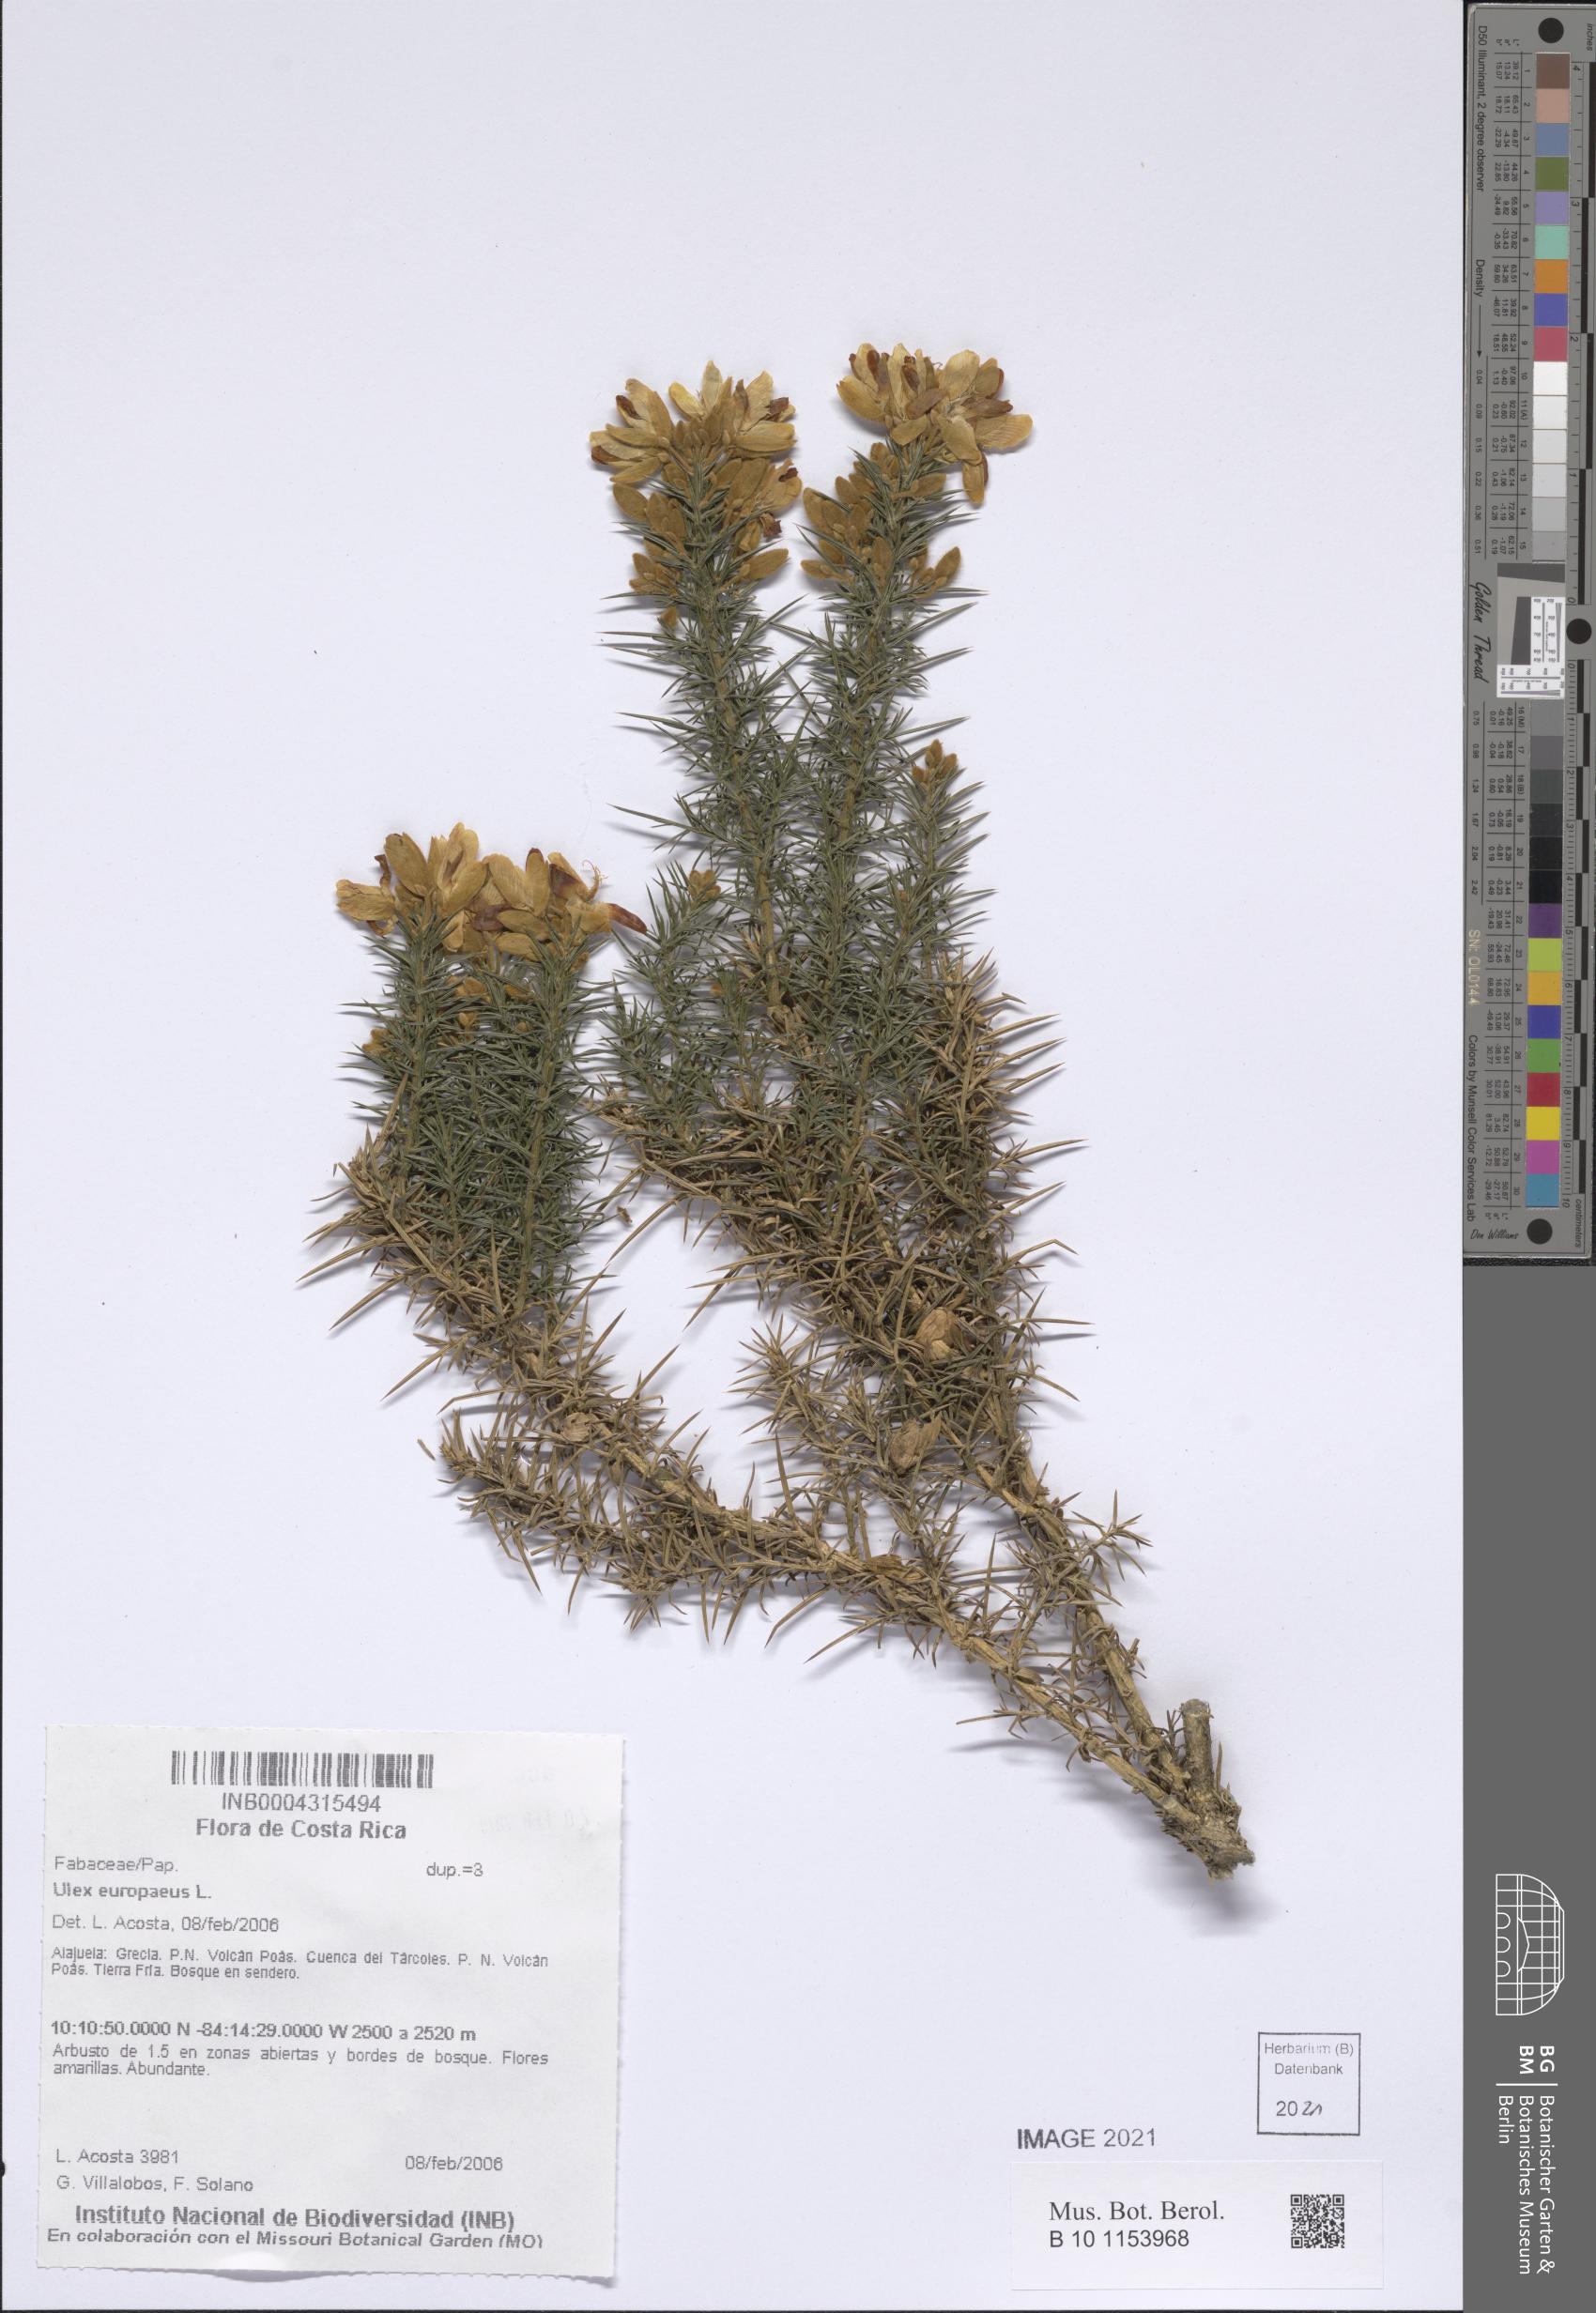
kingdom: Plantae
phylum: Tracheophyta
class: Magnoliopsida
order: Fabales
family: Fabaceae
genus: Ulex
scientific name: Ulex europaeus
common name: Common gorse
